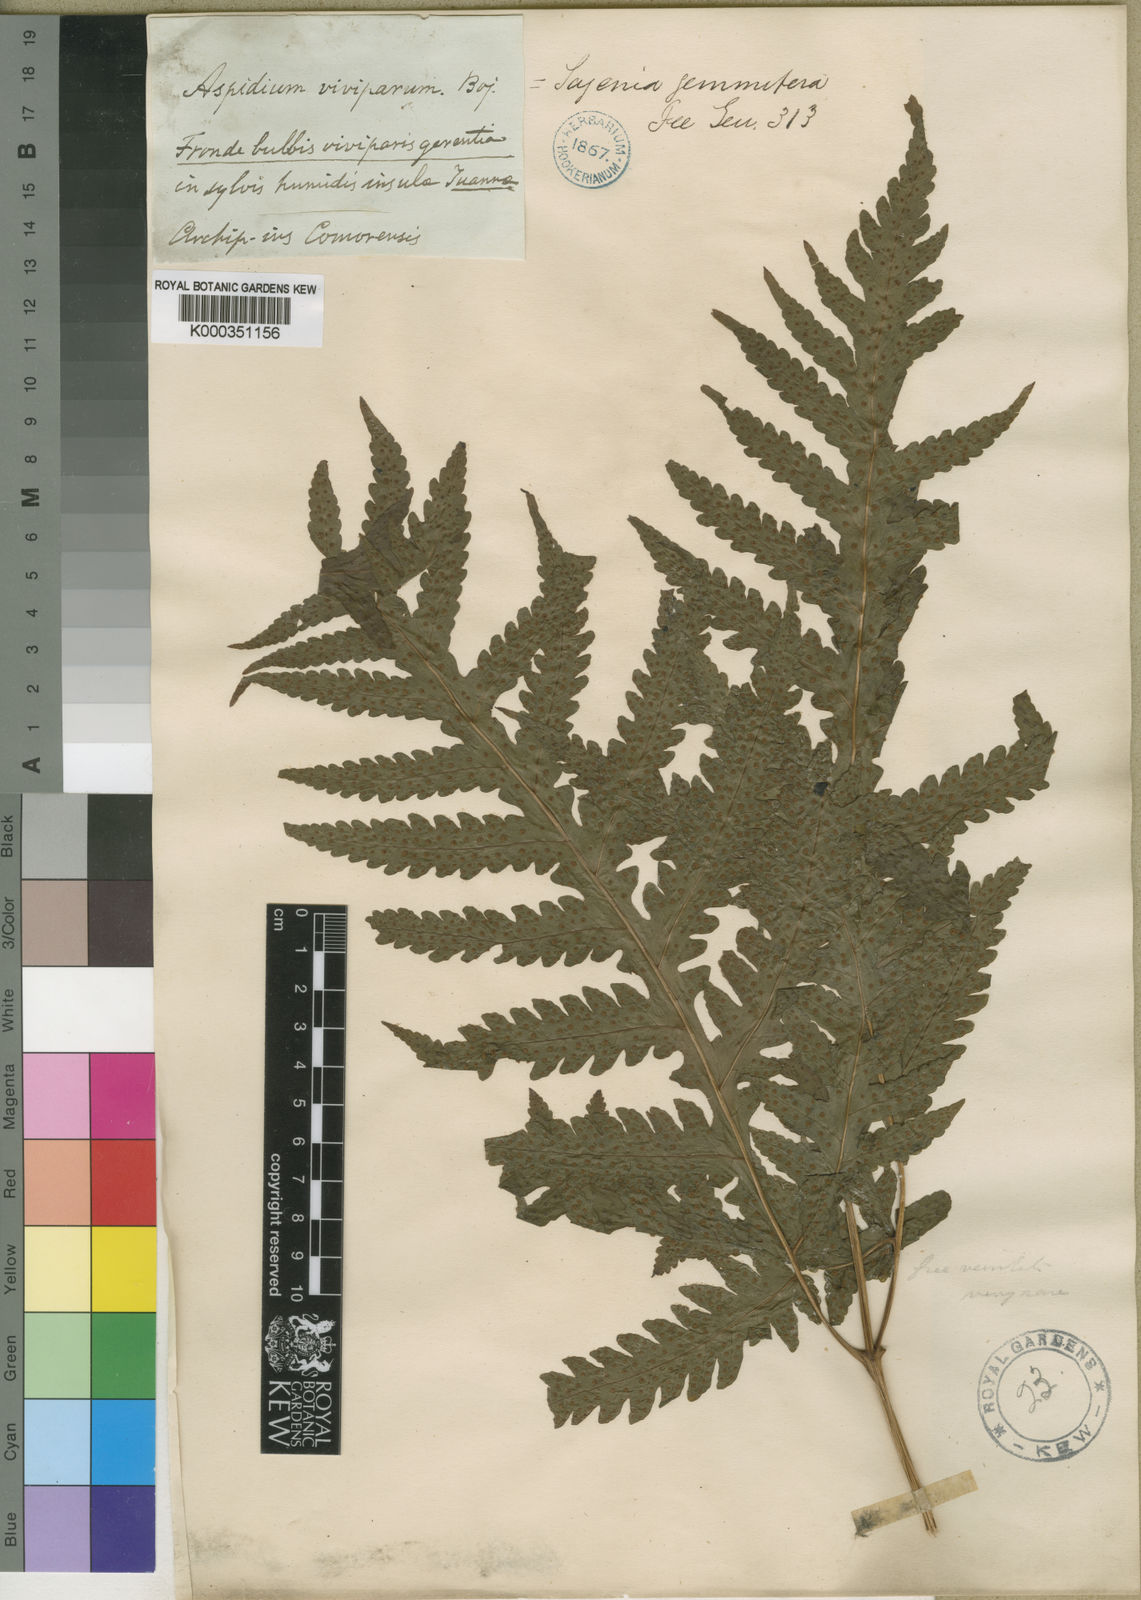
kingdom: Plantae
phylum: Tracheophyta
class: Polypodiopsida
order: Polypodiales
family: Tectariaceae
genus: Tectaria
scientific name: Tectaria
